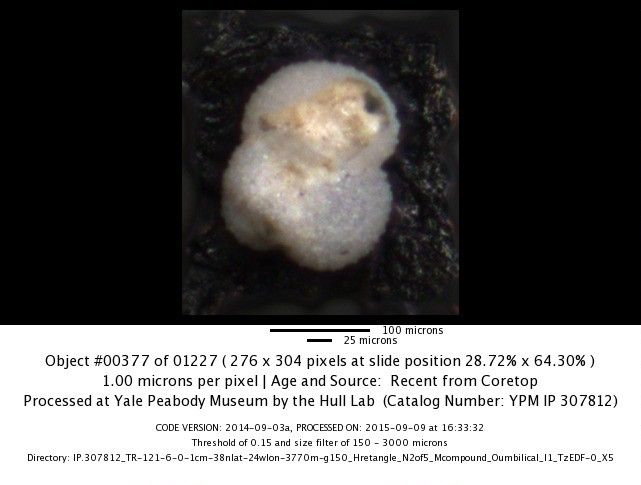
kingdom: Chromista
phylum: Foraminifera
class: Globothalamea
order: Rotaliida
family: Globigerinidae
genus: Globigerinoides
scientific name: Globigerinoides ruber
